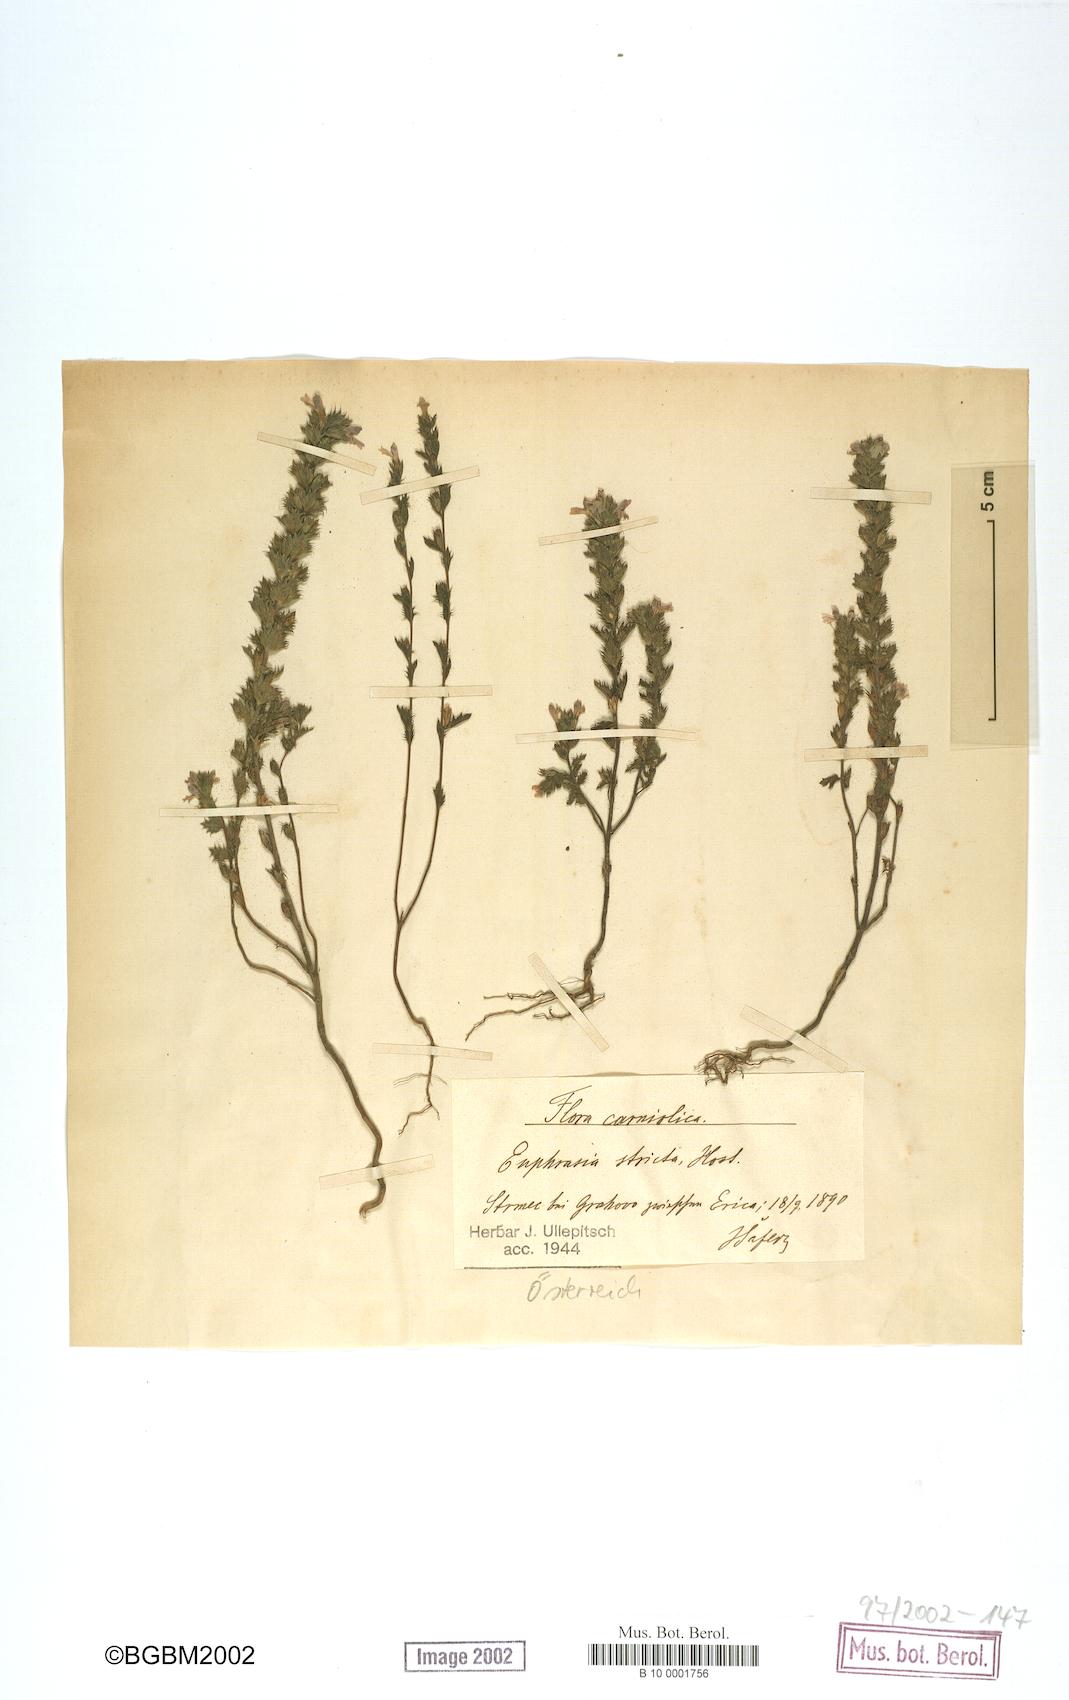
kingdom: Plantae
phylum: Tracheophyta
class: Magnoliopsida
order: Lamiales
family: Orobanchaceae
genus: Euphrasia
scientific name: Euphrasia stricta
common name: Drug eyebright
